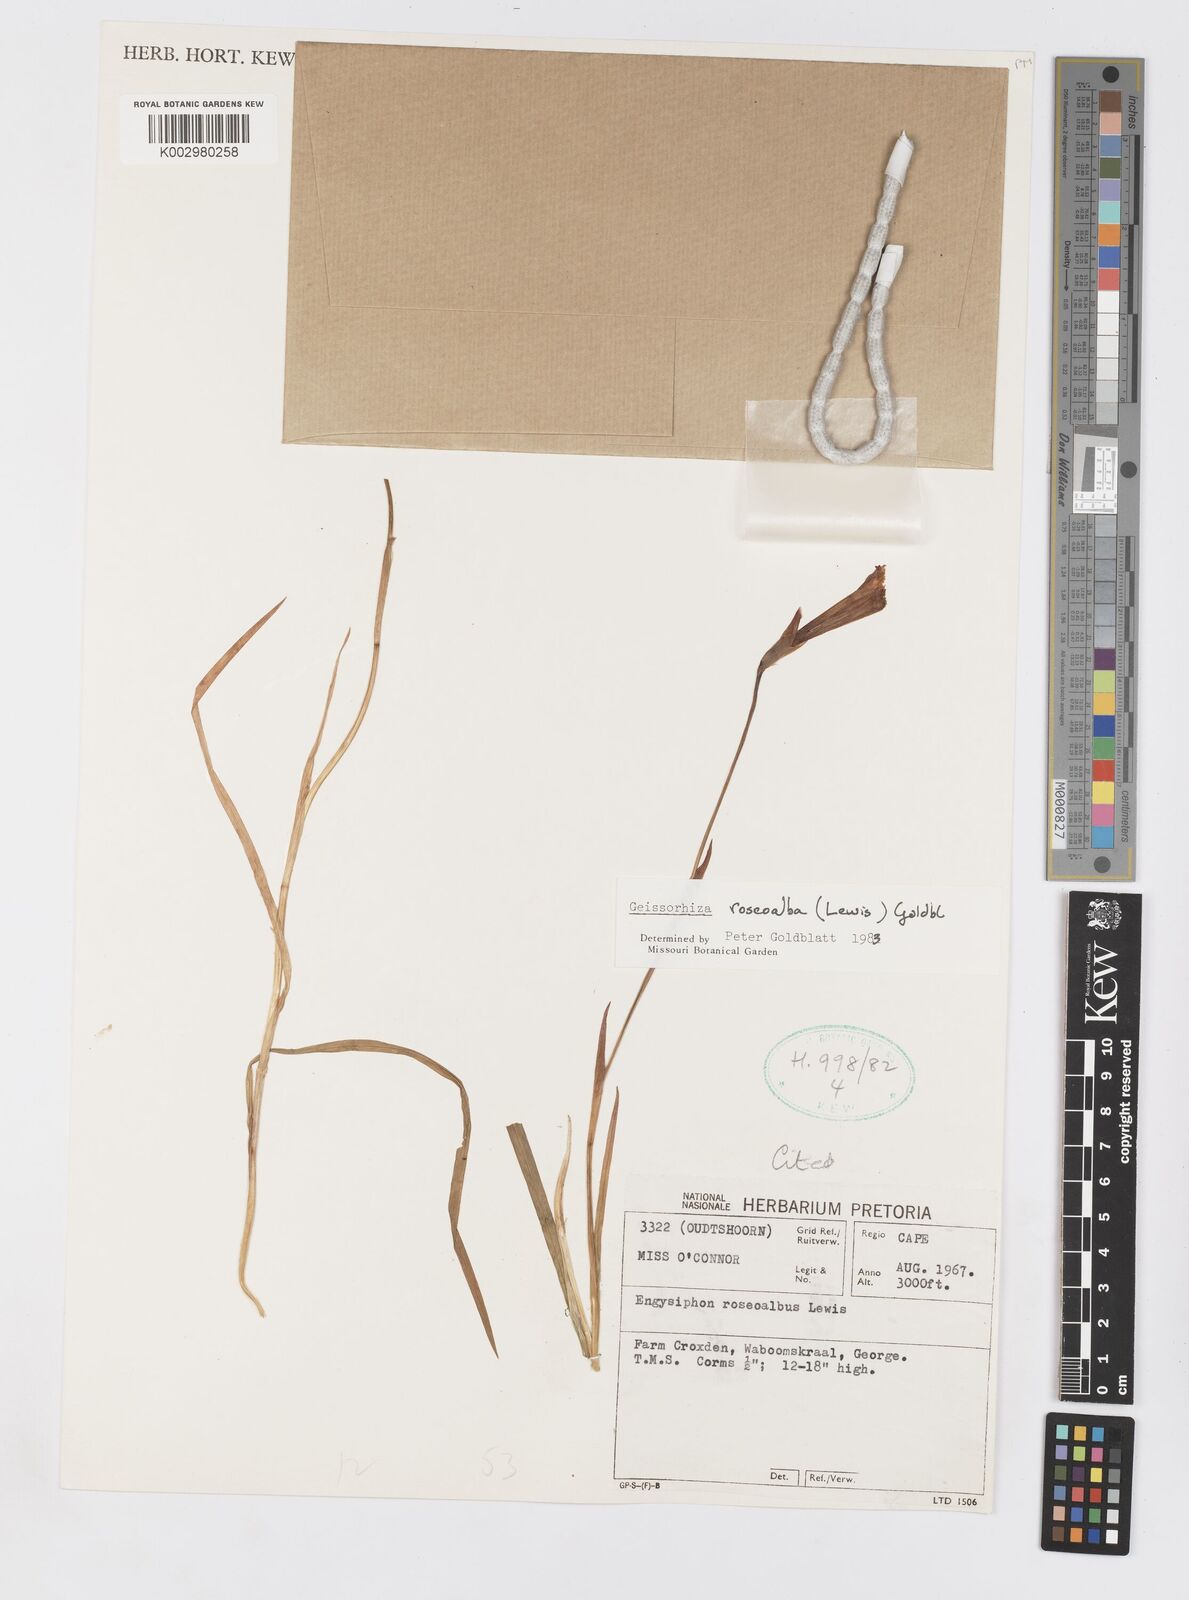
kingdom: Plantae
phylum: Tracheophyta
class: Liliopsida
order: Asparagales
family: Iridaceae
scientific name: Iridaceae
